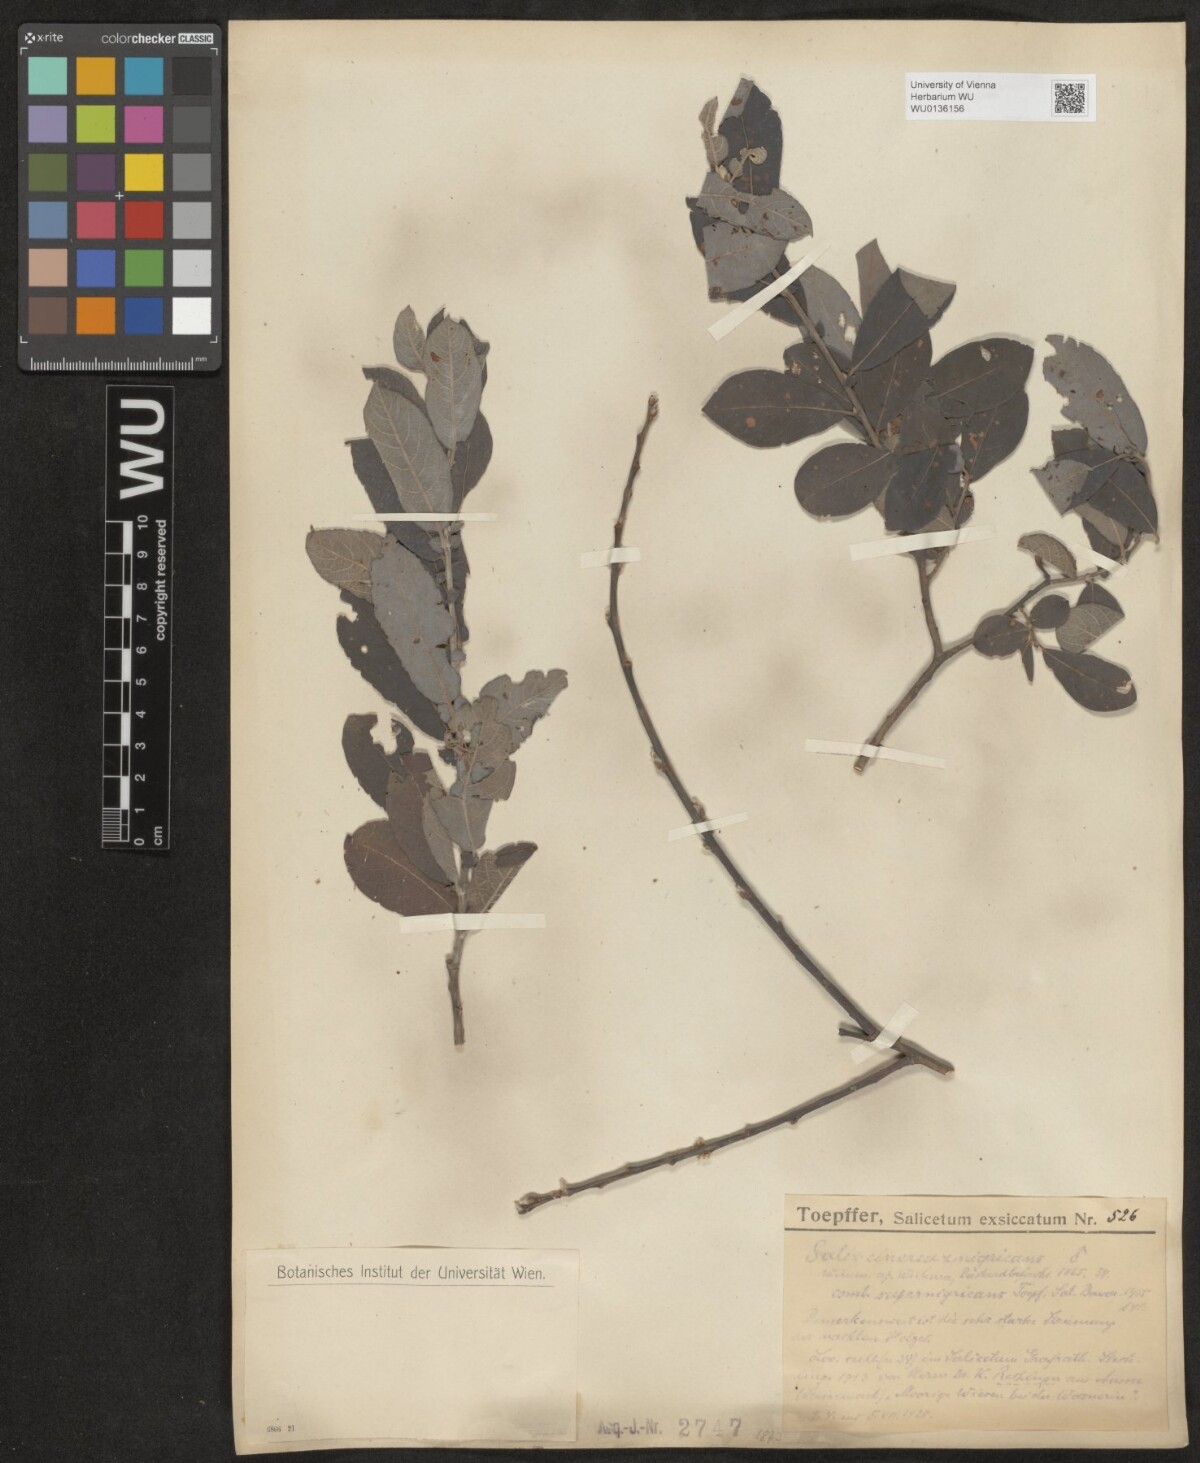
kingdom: Plantae
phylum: Tracheophyta
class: Magnoliopsida
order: Malpighiales
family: Salicaceae
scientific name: Salicaceae
